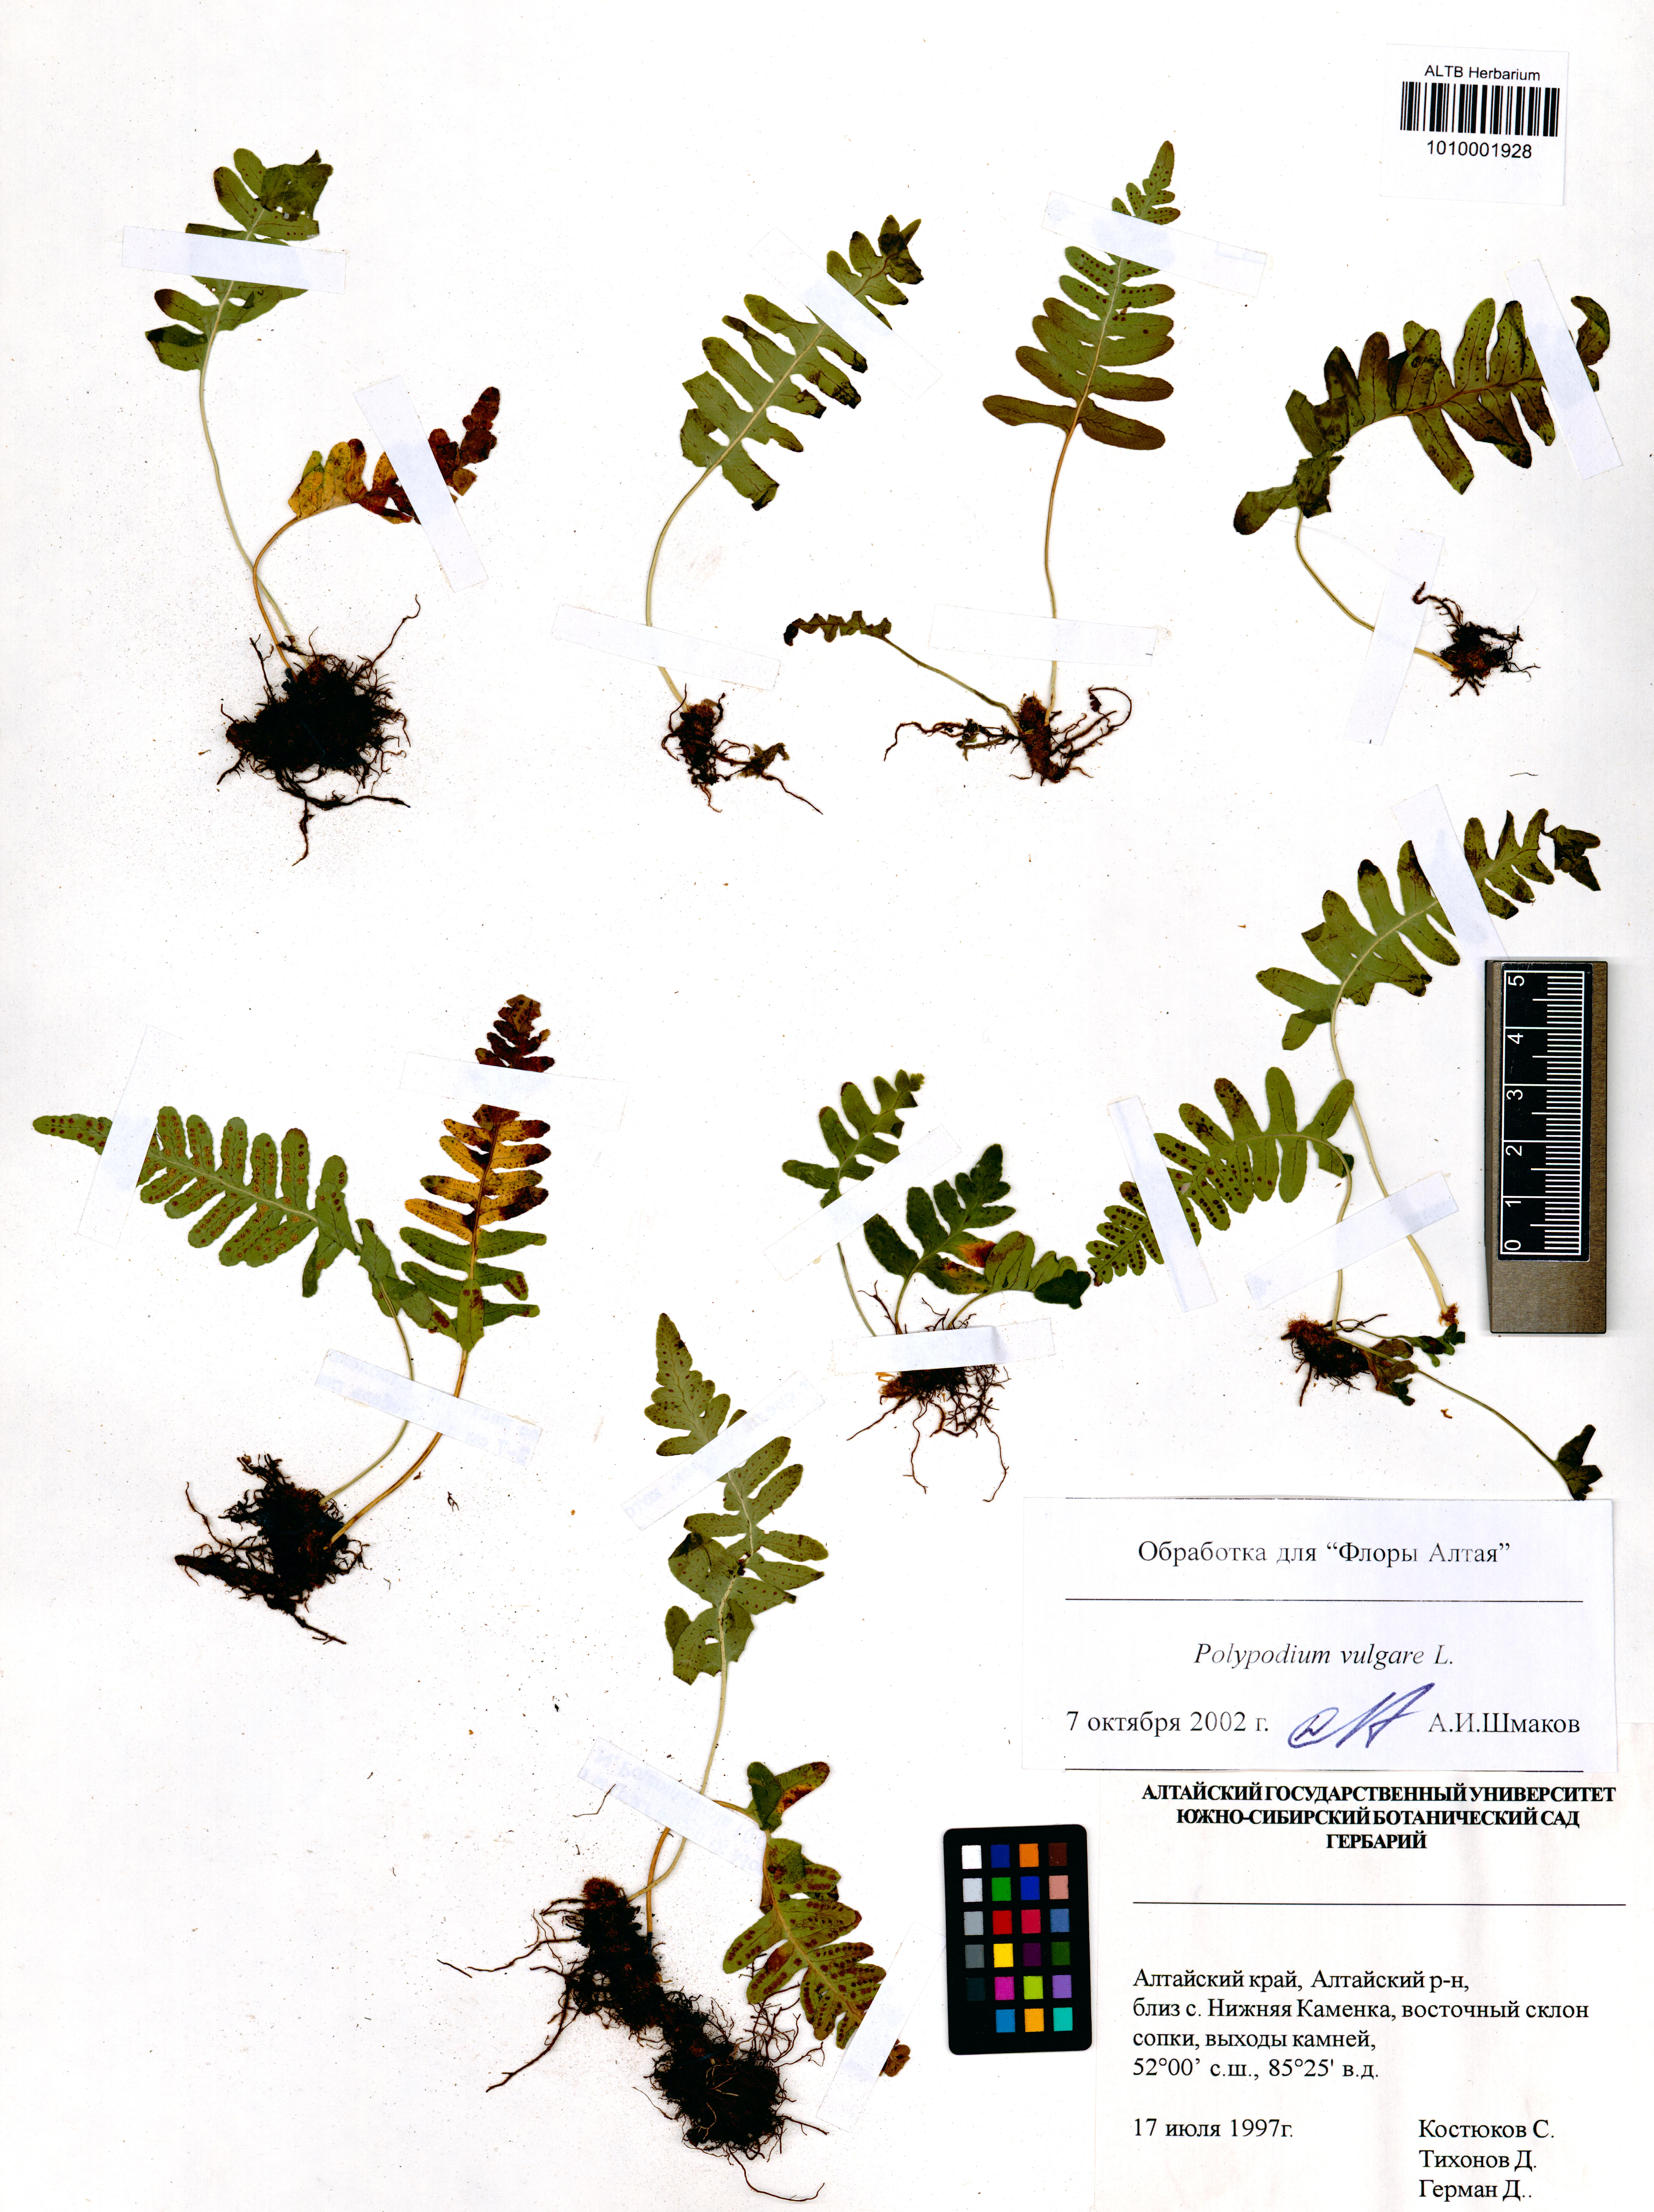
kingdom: Plantae
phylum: Tracheophyta
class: Polypodiopsida
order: Polypodiales
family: Polypodiaceae
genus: Polypodium
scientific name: Polypodium vulgare
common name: Common polypody
